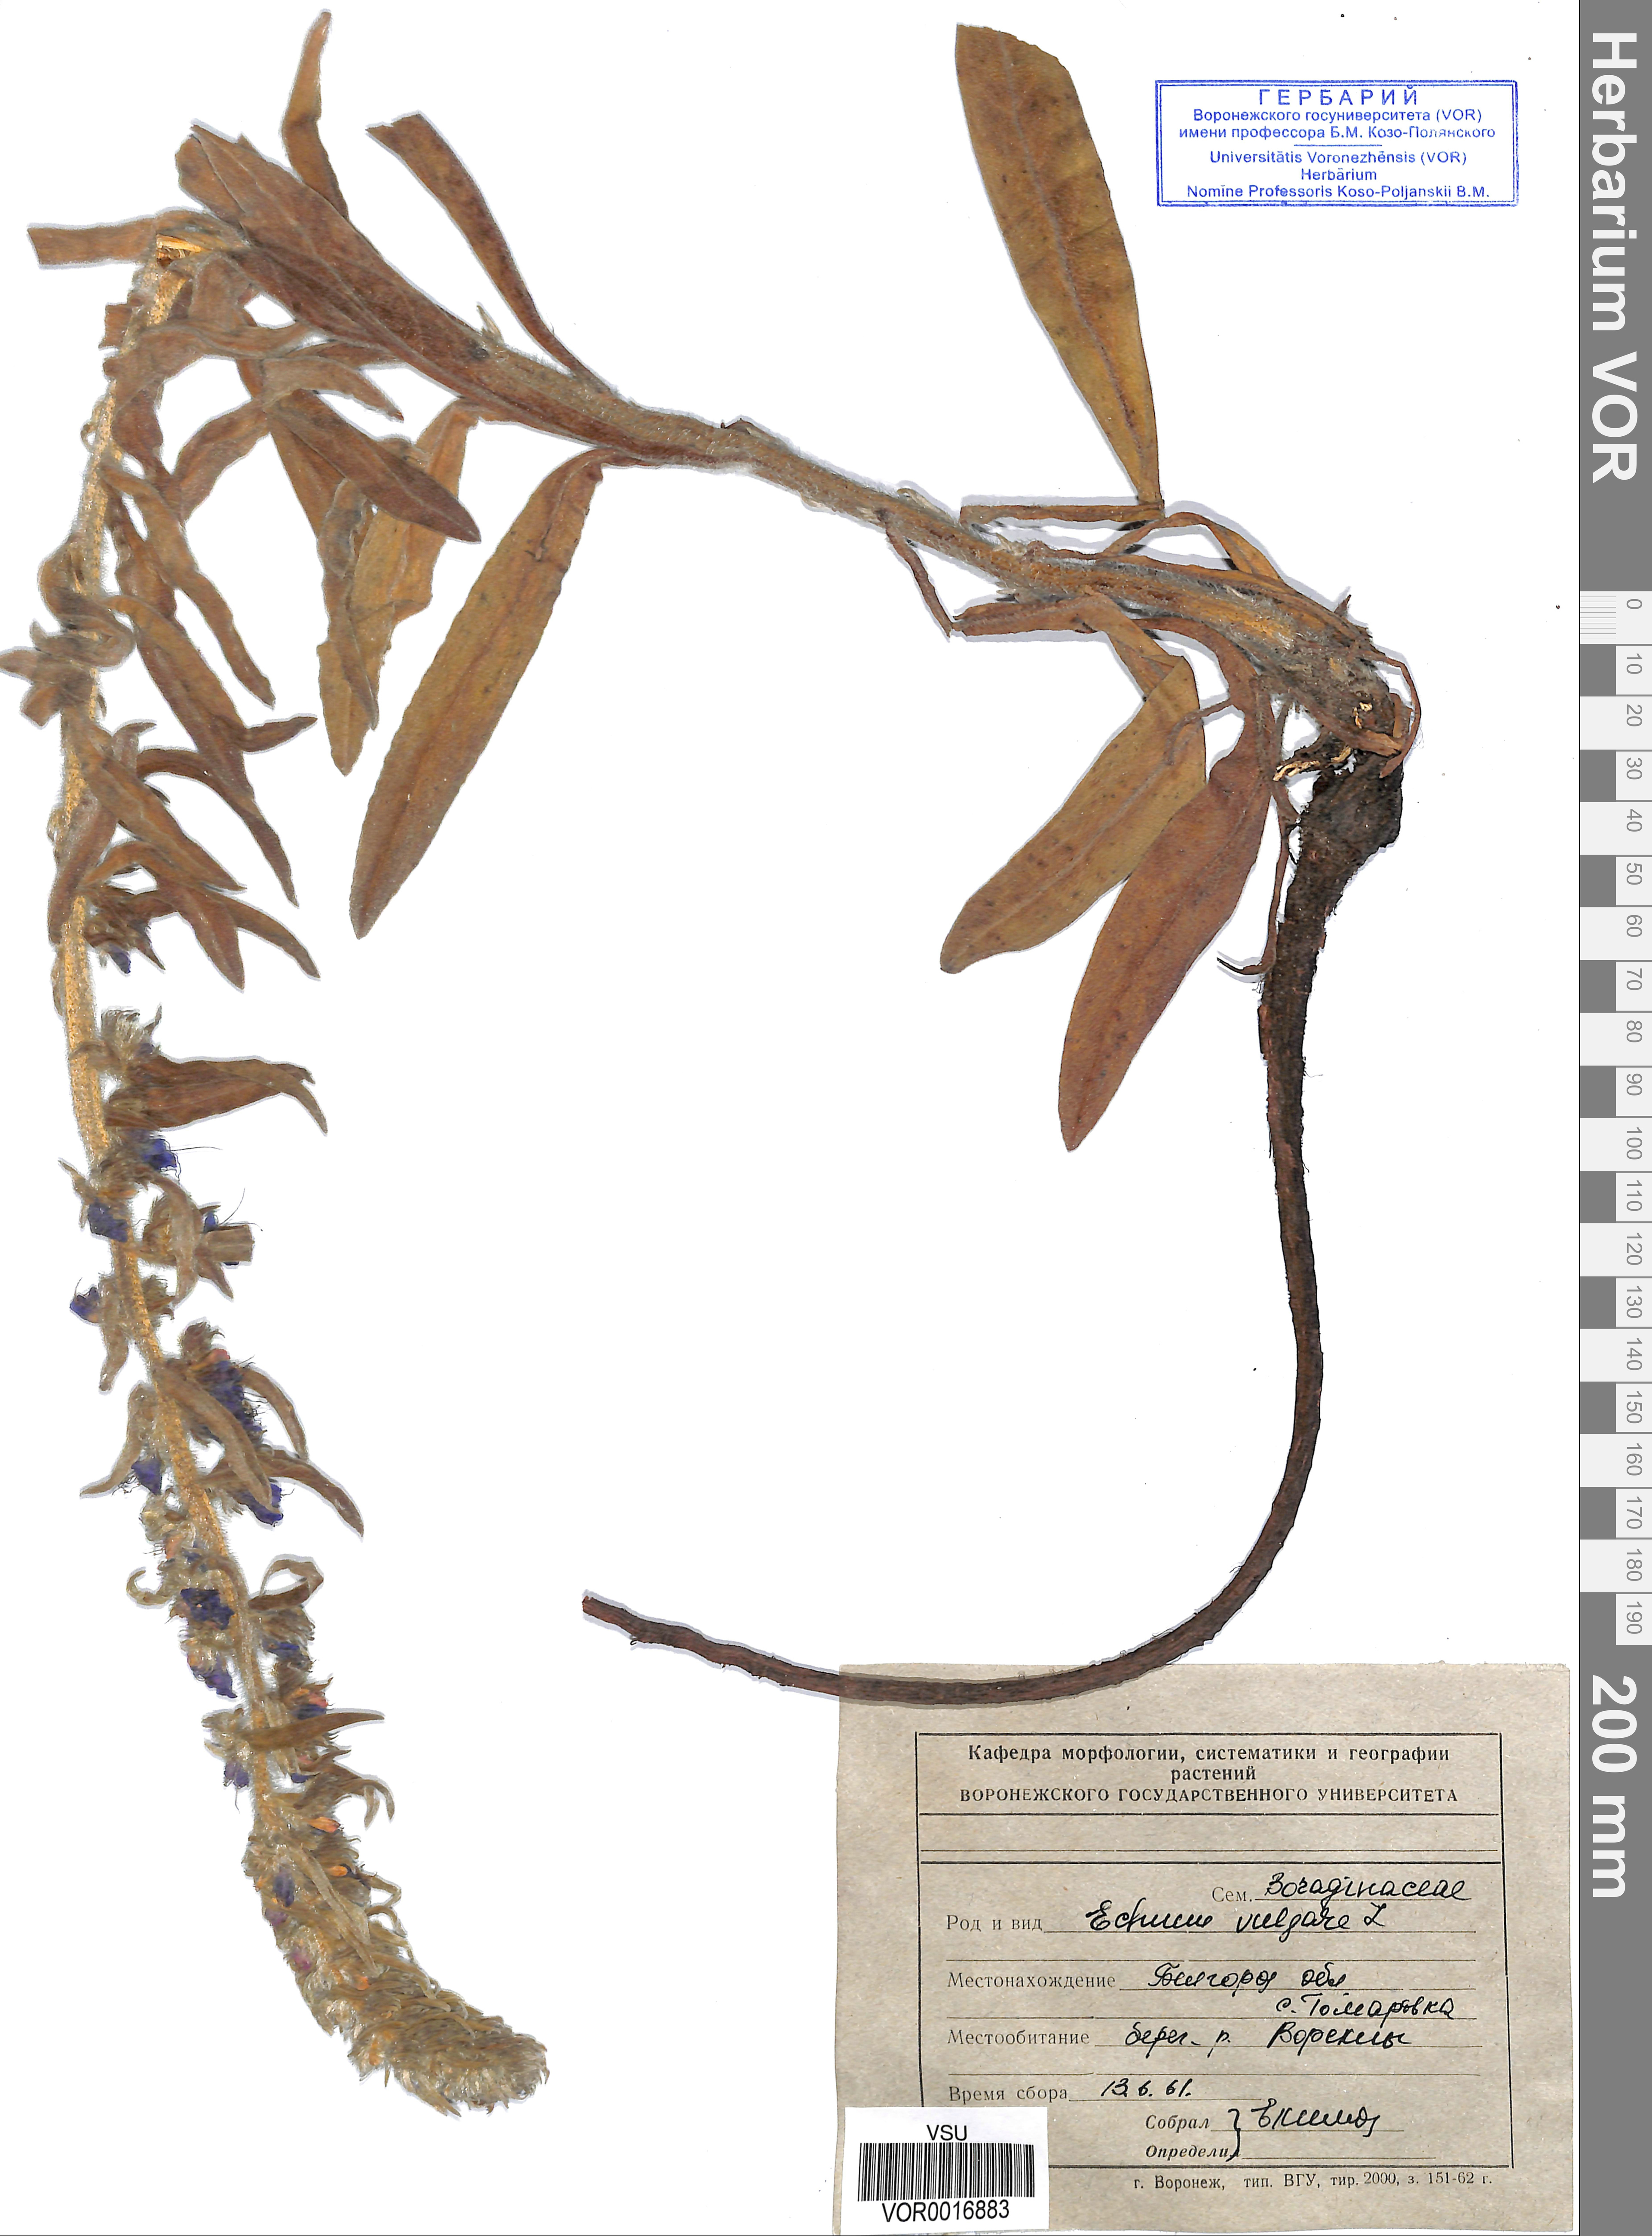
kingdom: Plantae
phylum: Tracheophyta
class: Magnoliopsida
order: Boraginales
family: Boraginaceae
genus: Echium
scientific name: Echium vulgare
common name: Common viper's bugloss
